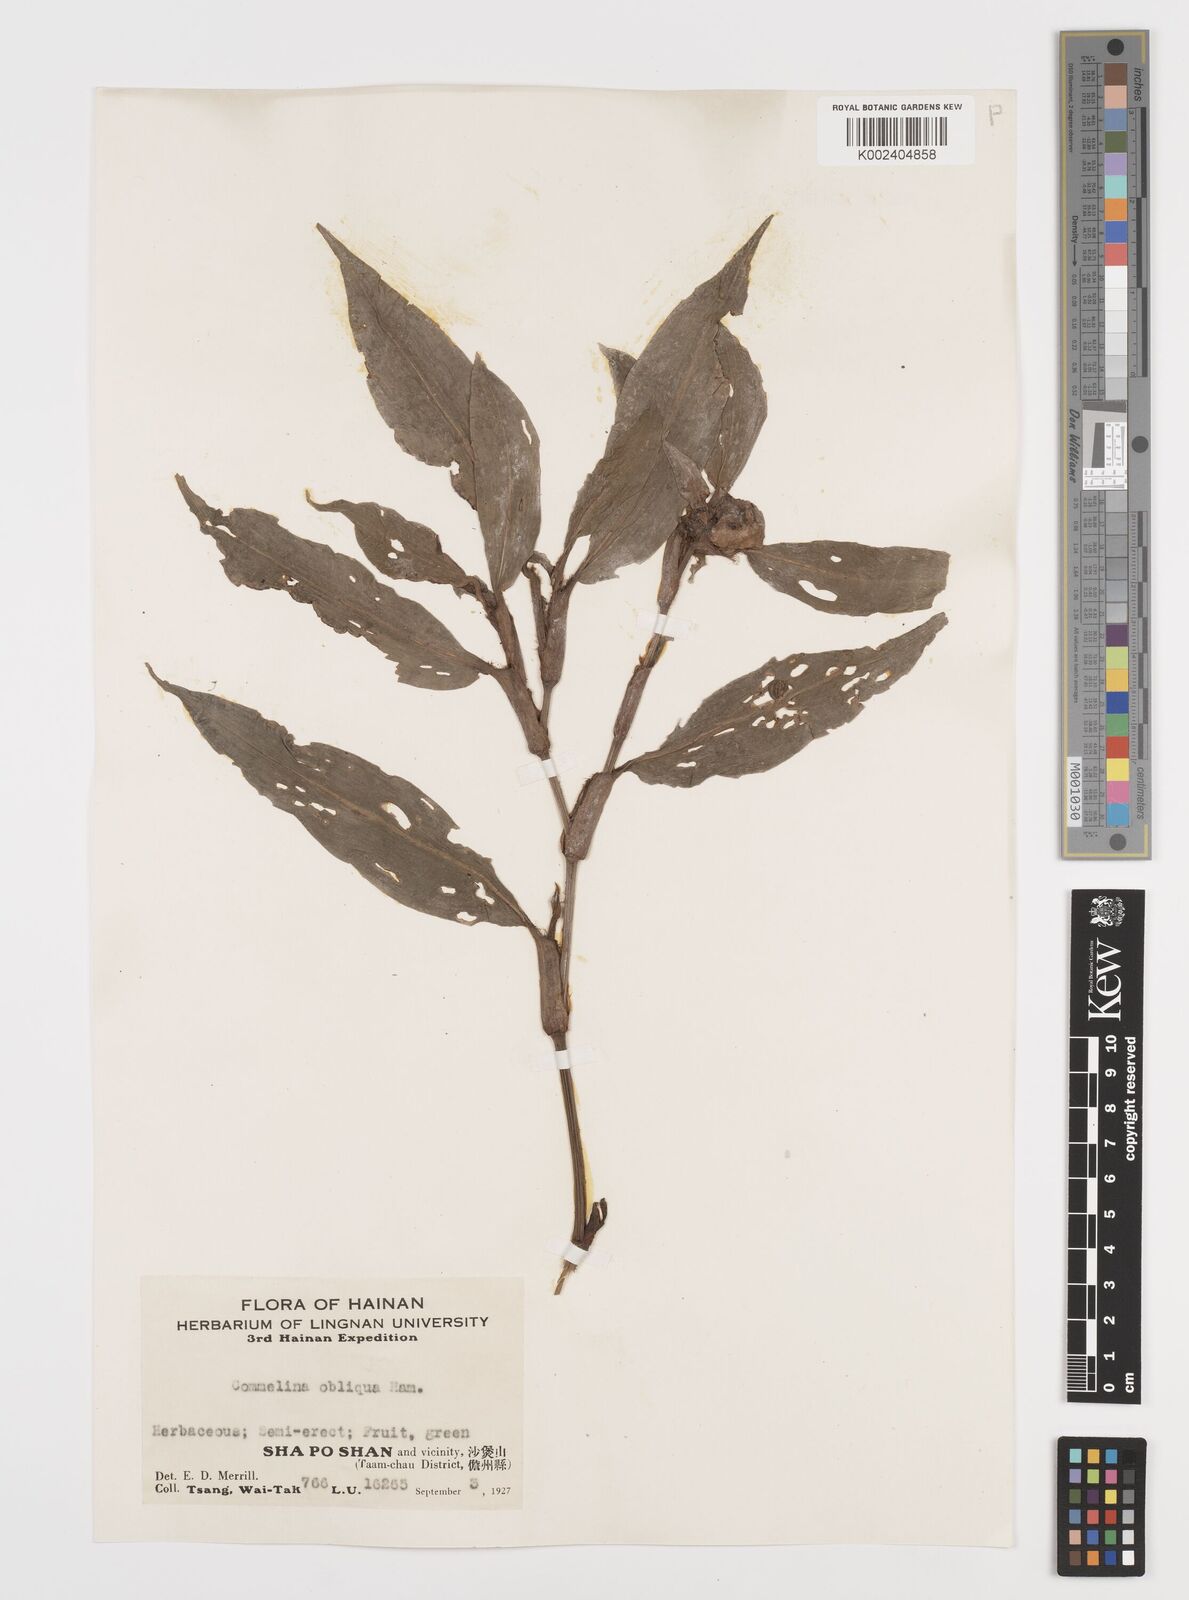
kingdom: Plantae
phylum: Tracheophyta
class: Liliopsida
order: Commelinales
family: Commelinaceae
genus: Commelina
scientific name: Commelina obliqua
